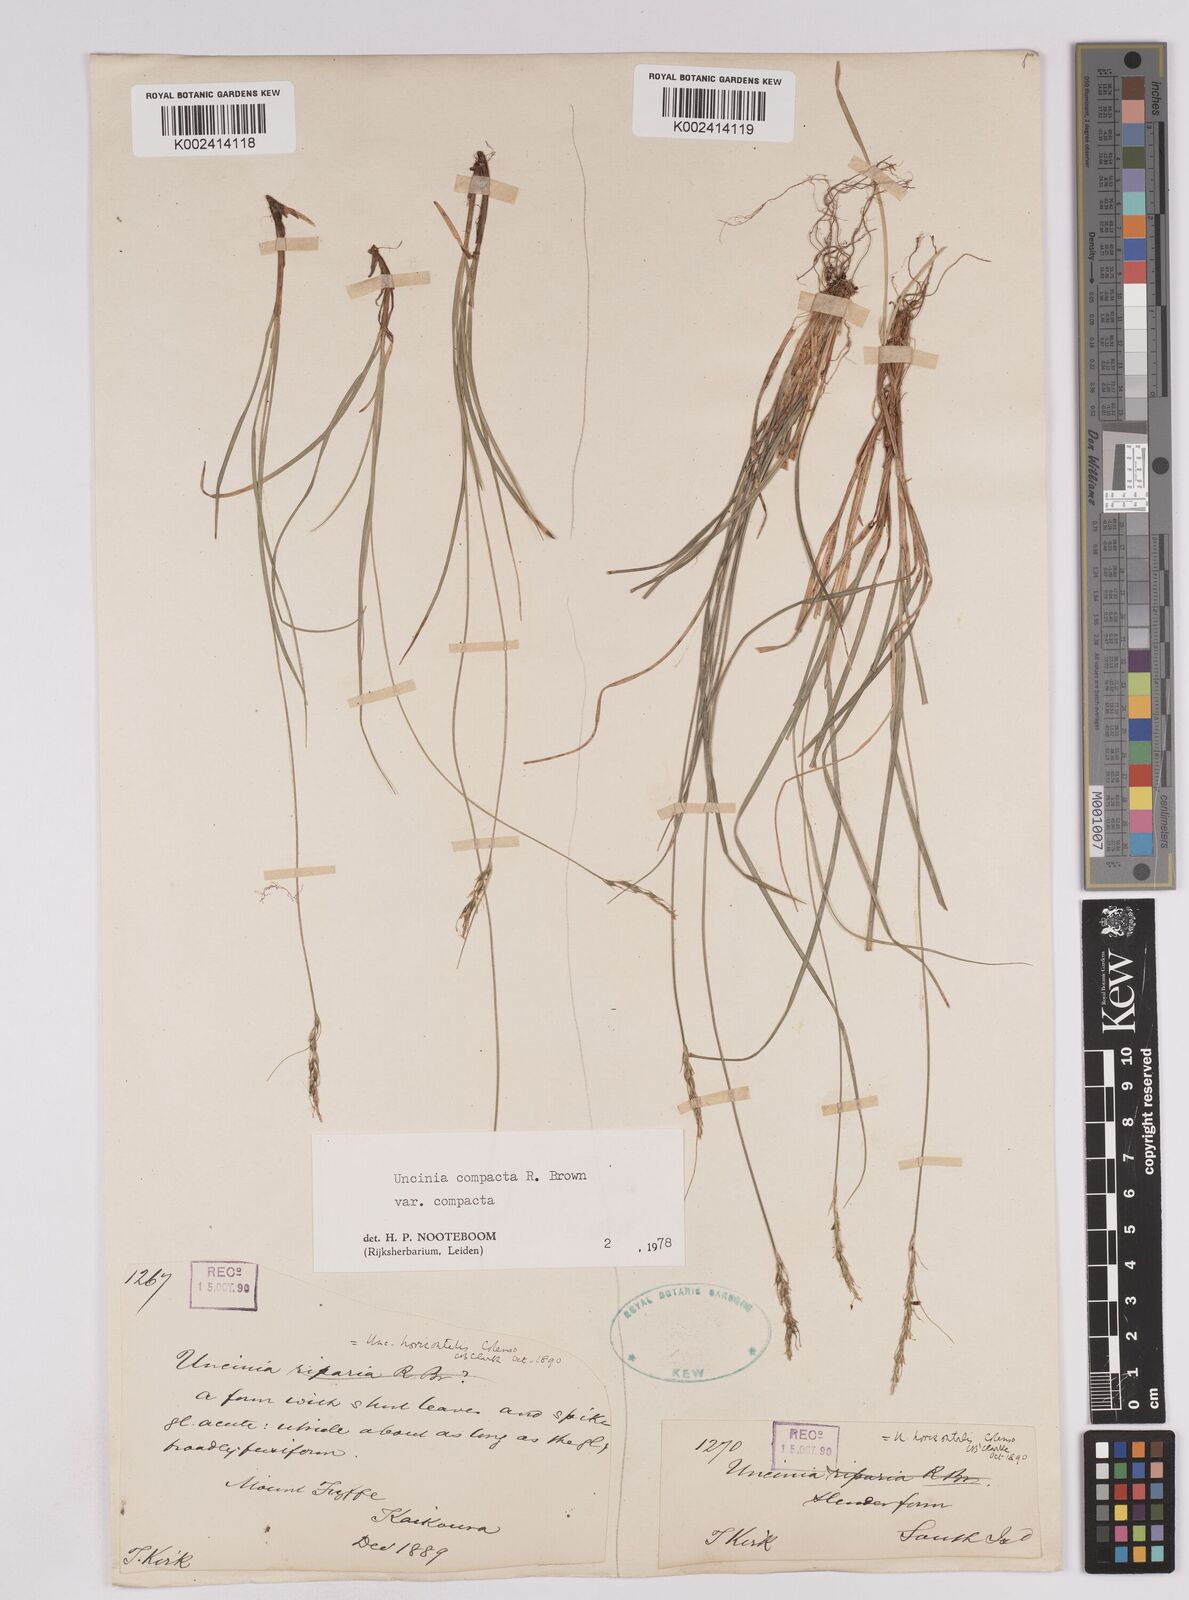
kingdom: Plantae
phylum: Tracheophyta
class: Liliopsida
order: Poales
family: Cyperaceae
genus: Carex
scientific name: Carex austrocompacta
